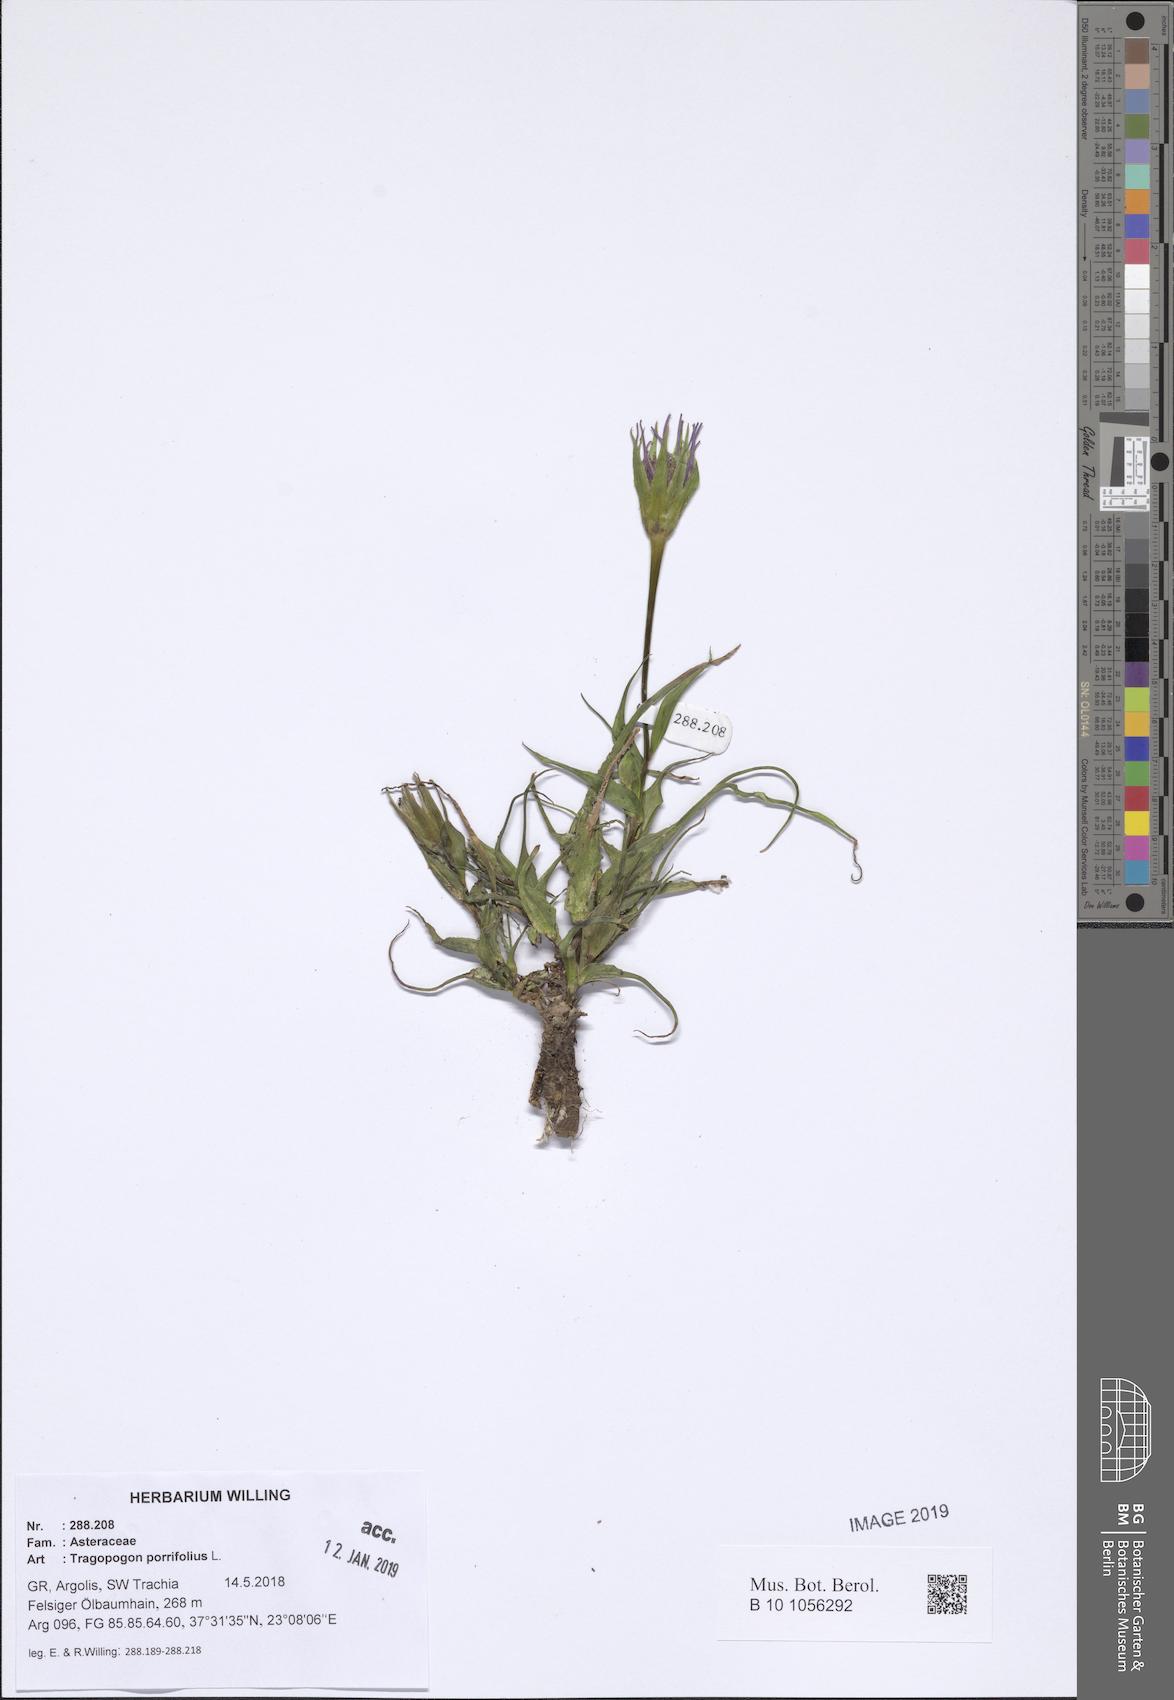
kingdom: Plantae
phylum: Tracheophyta
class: Magnoliopsida
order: Asterales
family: Asteraceae
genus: Tragopogon
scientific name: Tragopogon porrifolius
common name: Salsify
